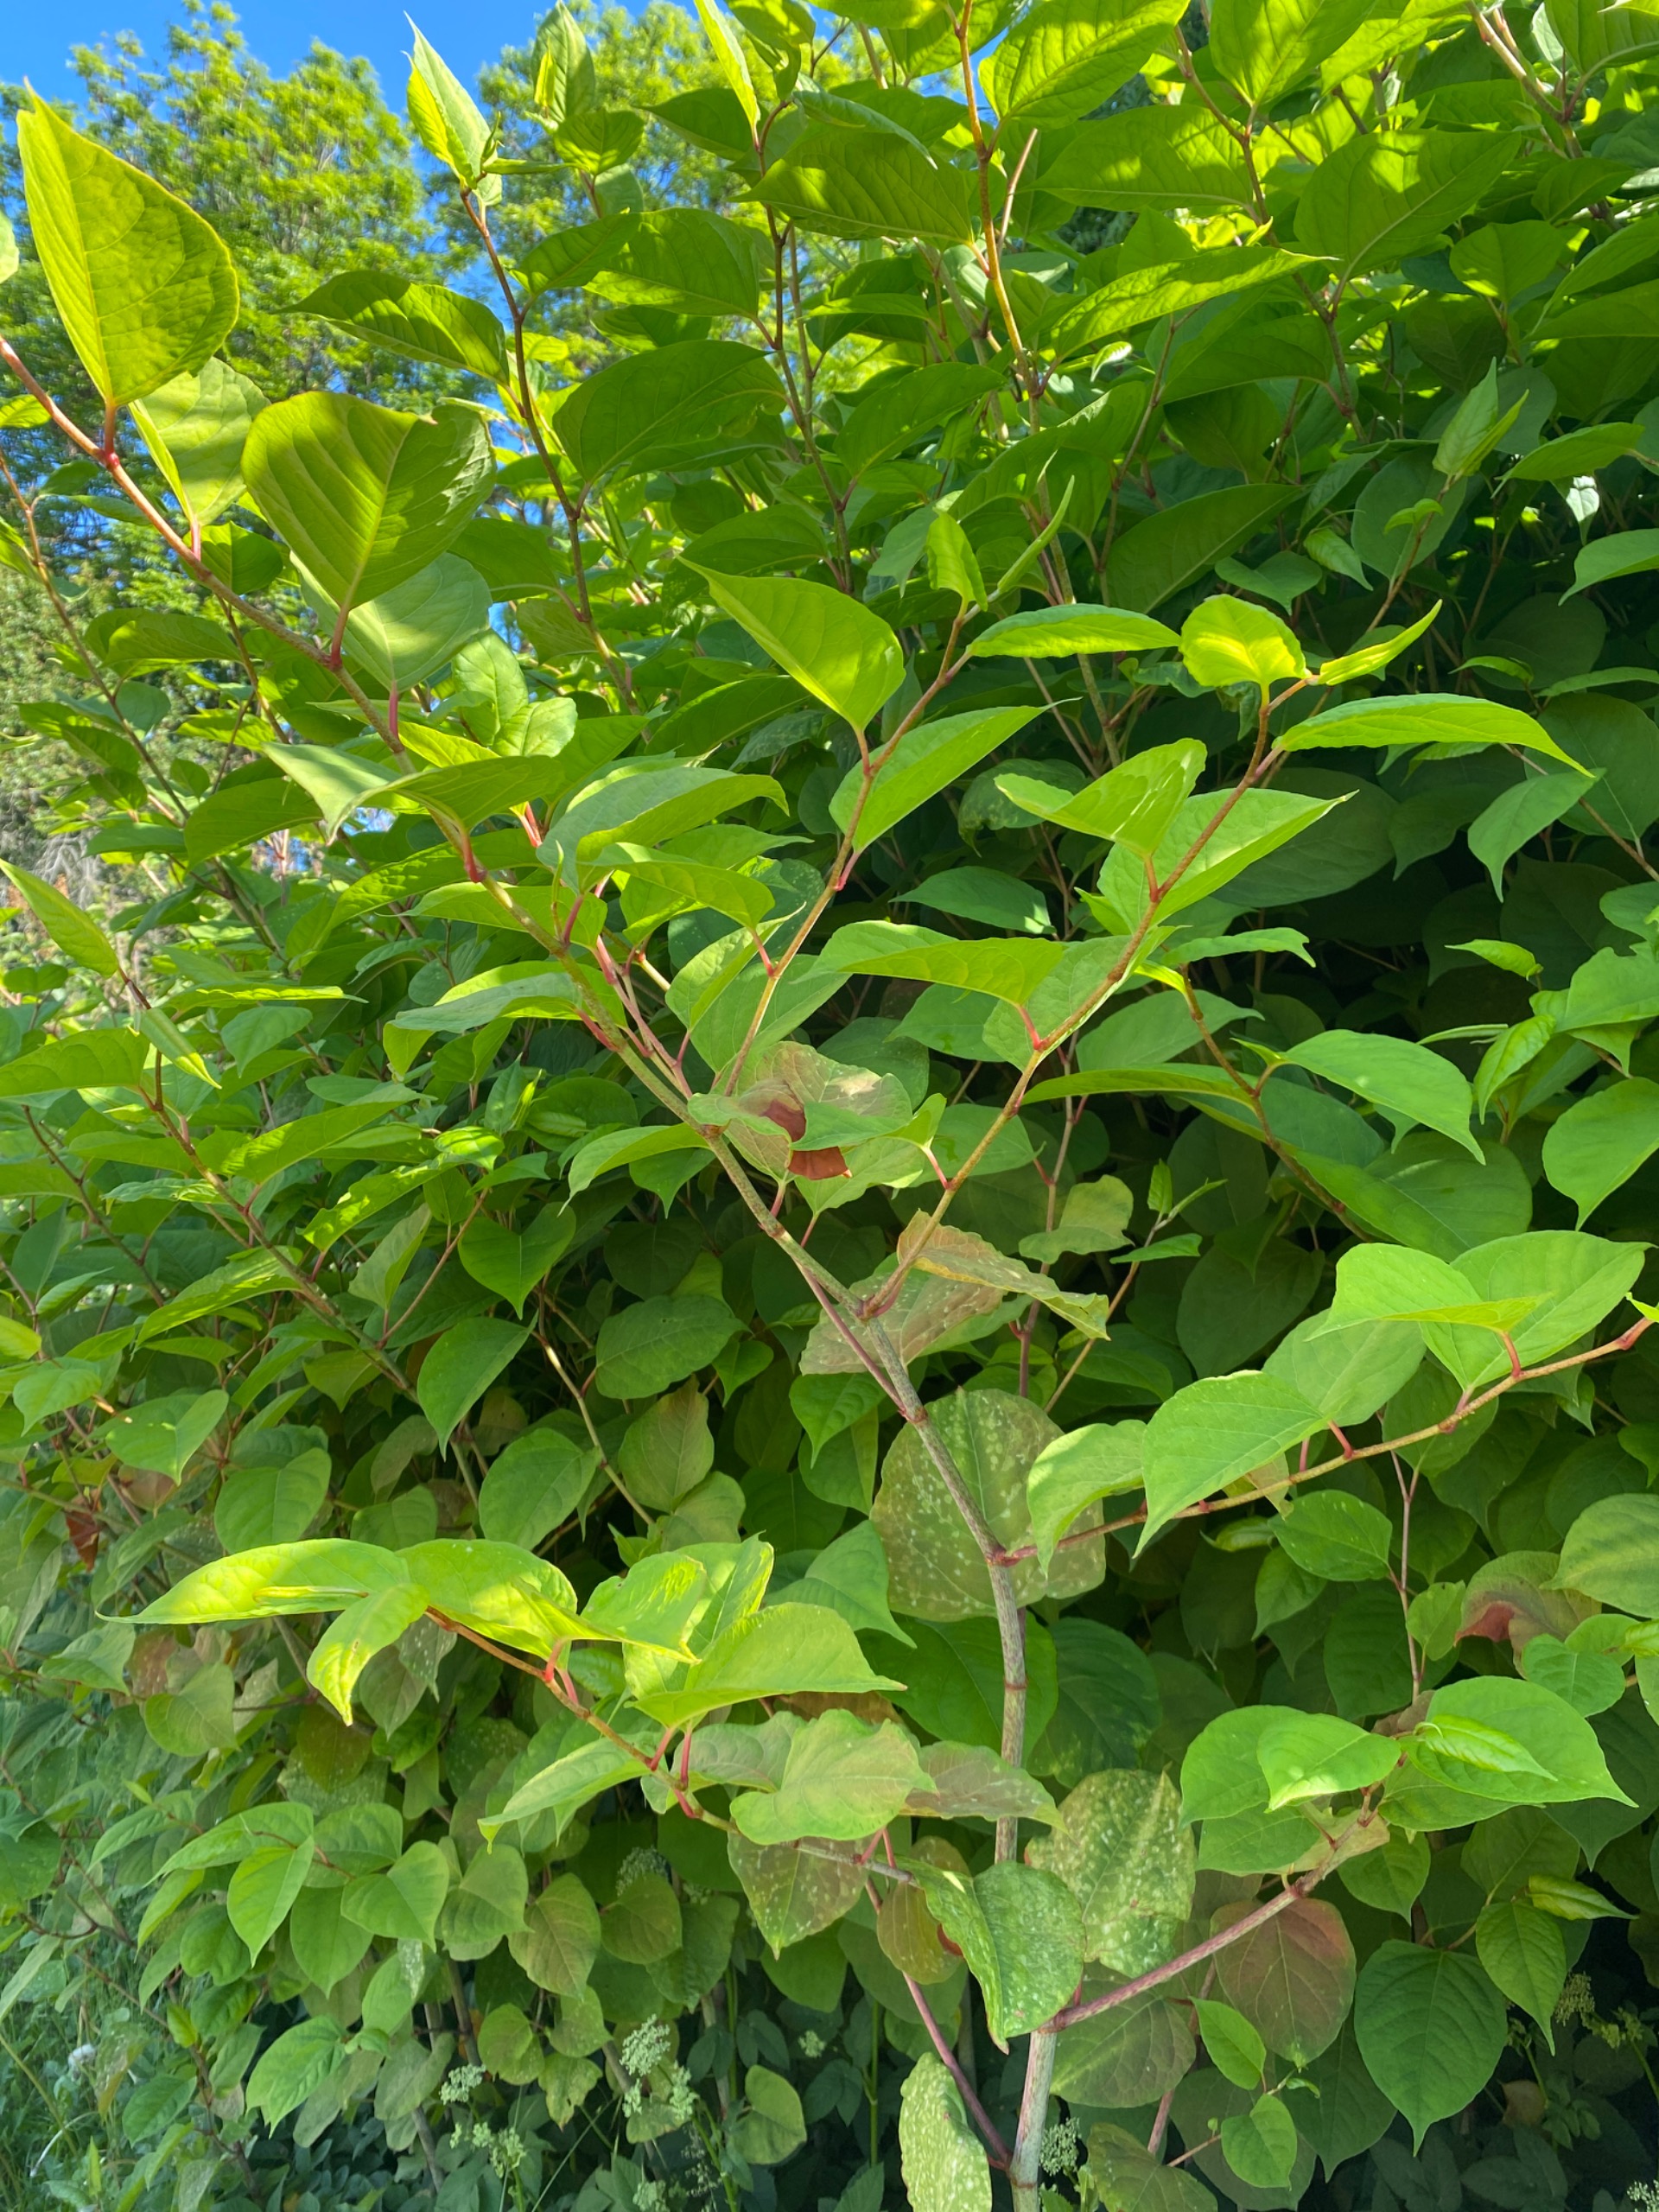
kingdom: Plantae
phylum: Tracheophyta
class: Magnoliopsida
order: Caryophyllales
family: Polygonaceae
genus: Reynoutria
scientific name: Reynoutria japonica
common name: Japan-pileurt
